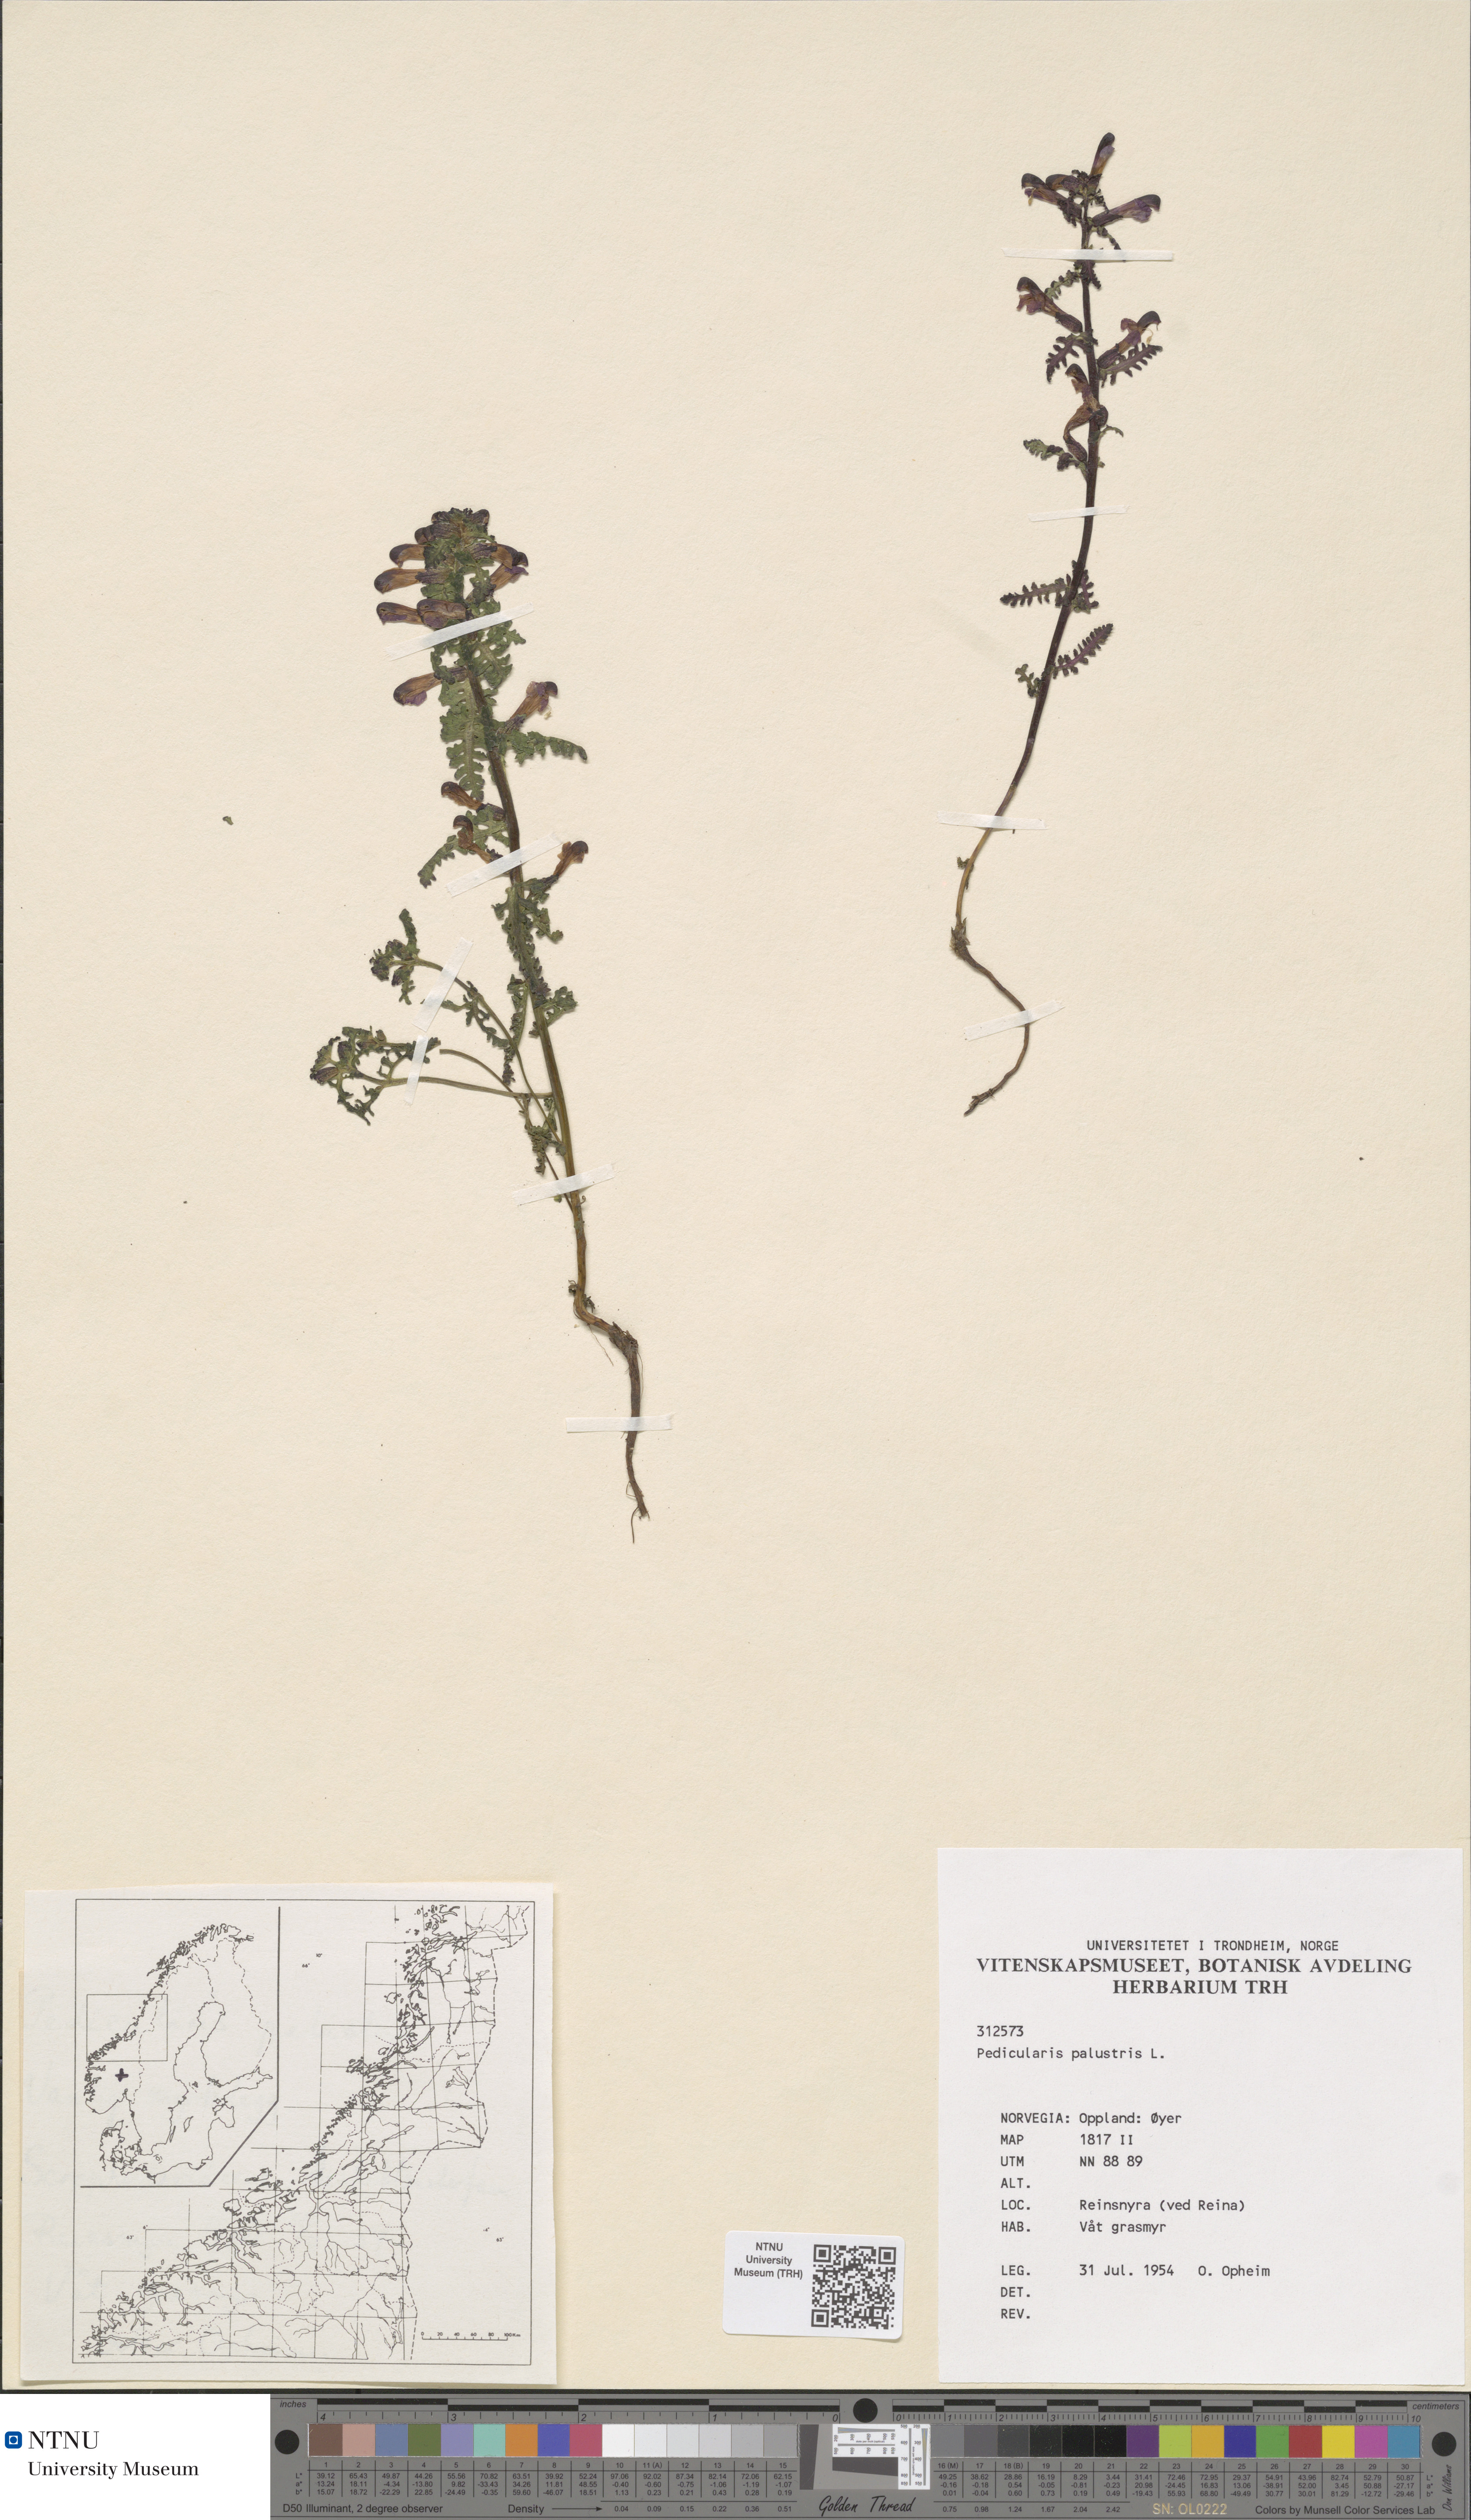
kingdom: Plantae
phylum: Tracheophyta
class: Magnoliopsida
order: Lamiales
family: Orobanchaceae
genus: Pedicularis
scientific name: Pedicularis palustris
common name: Marsh lousewort
